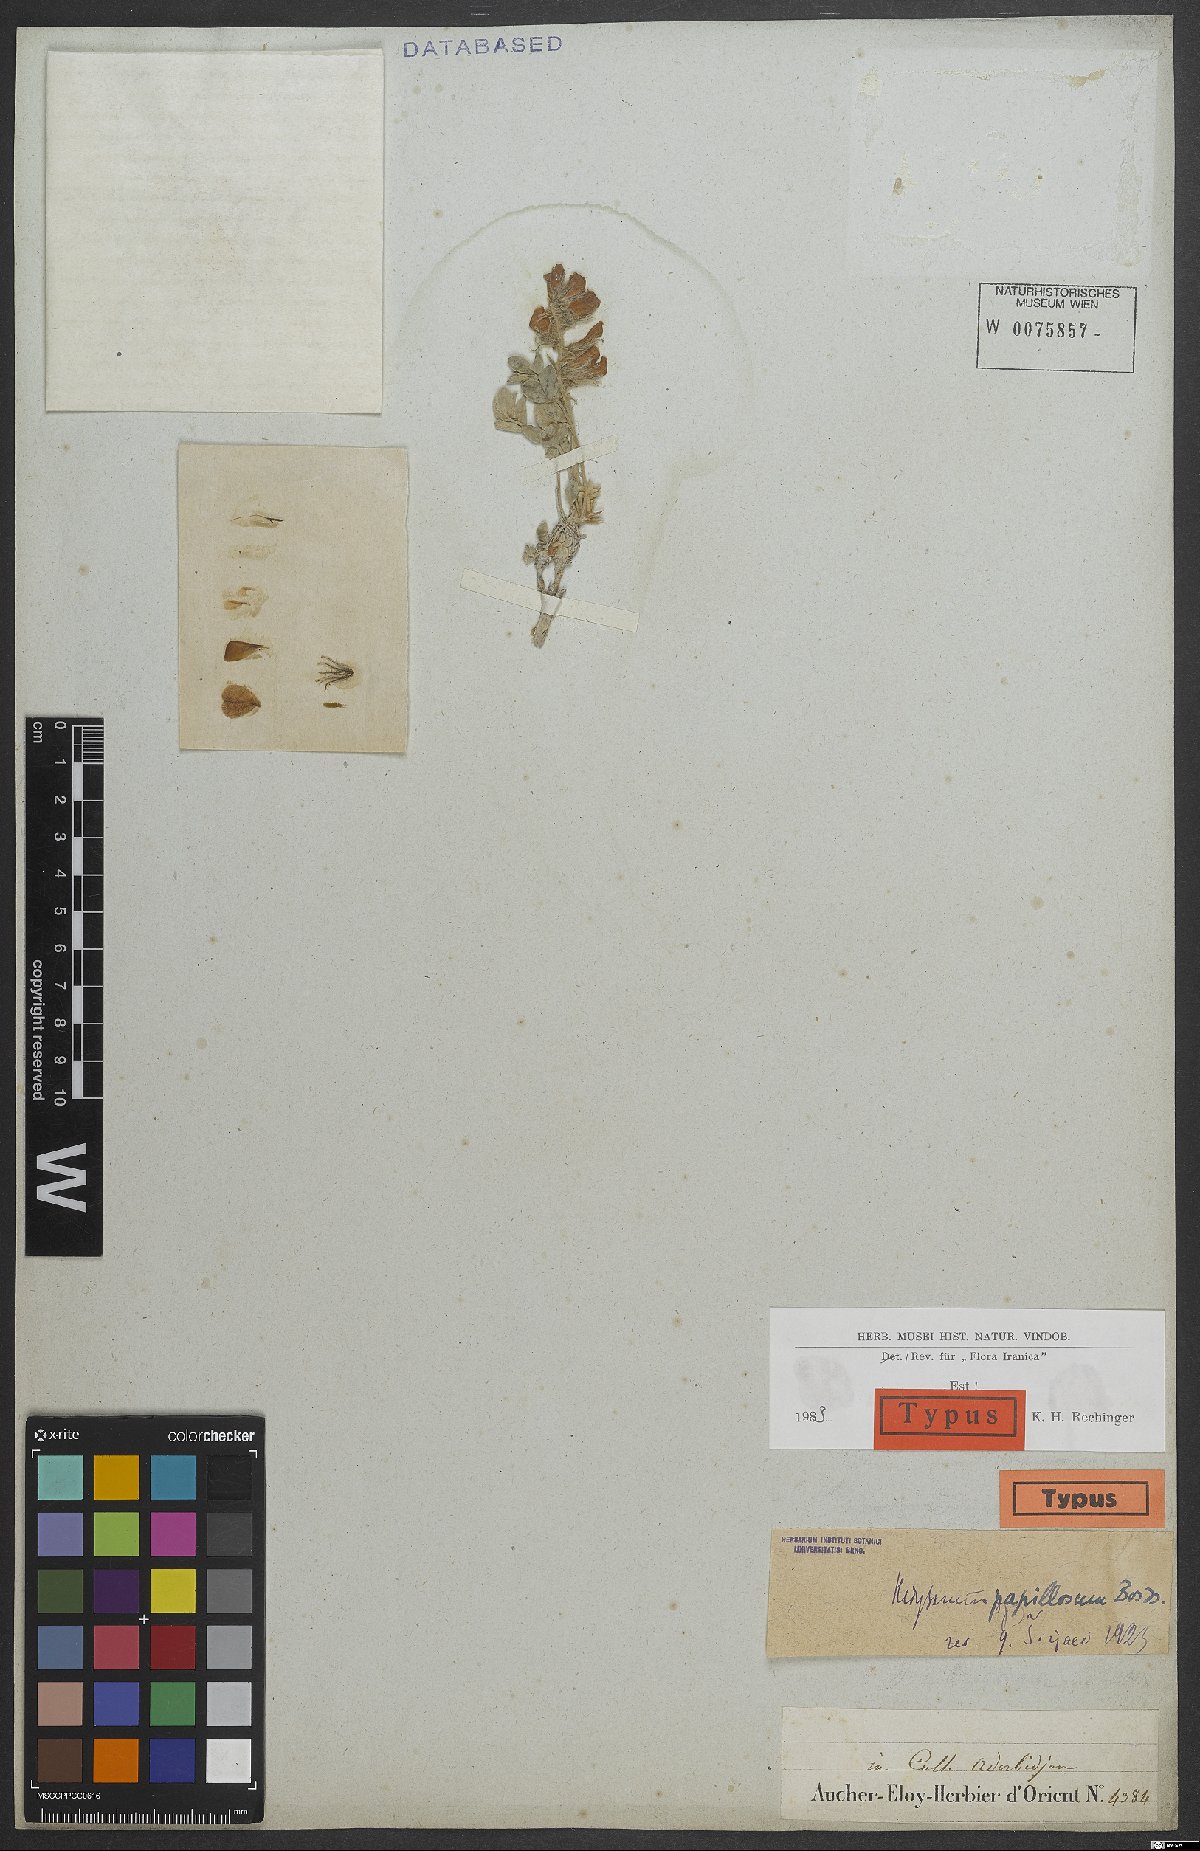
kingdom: Plantae
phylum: Tracheophyta
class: Magnoliopsida
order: Fabales
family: Fabaceae
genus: Hedysarum
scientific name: Hedysarum papillosum
